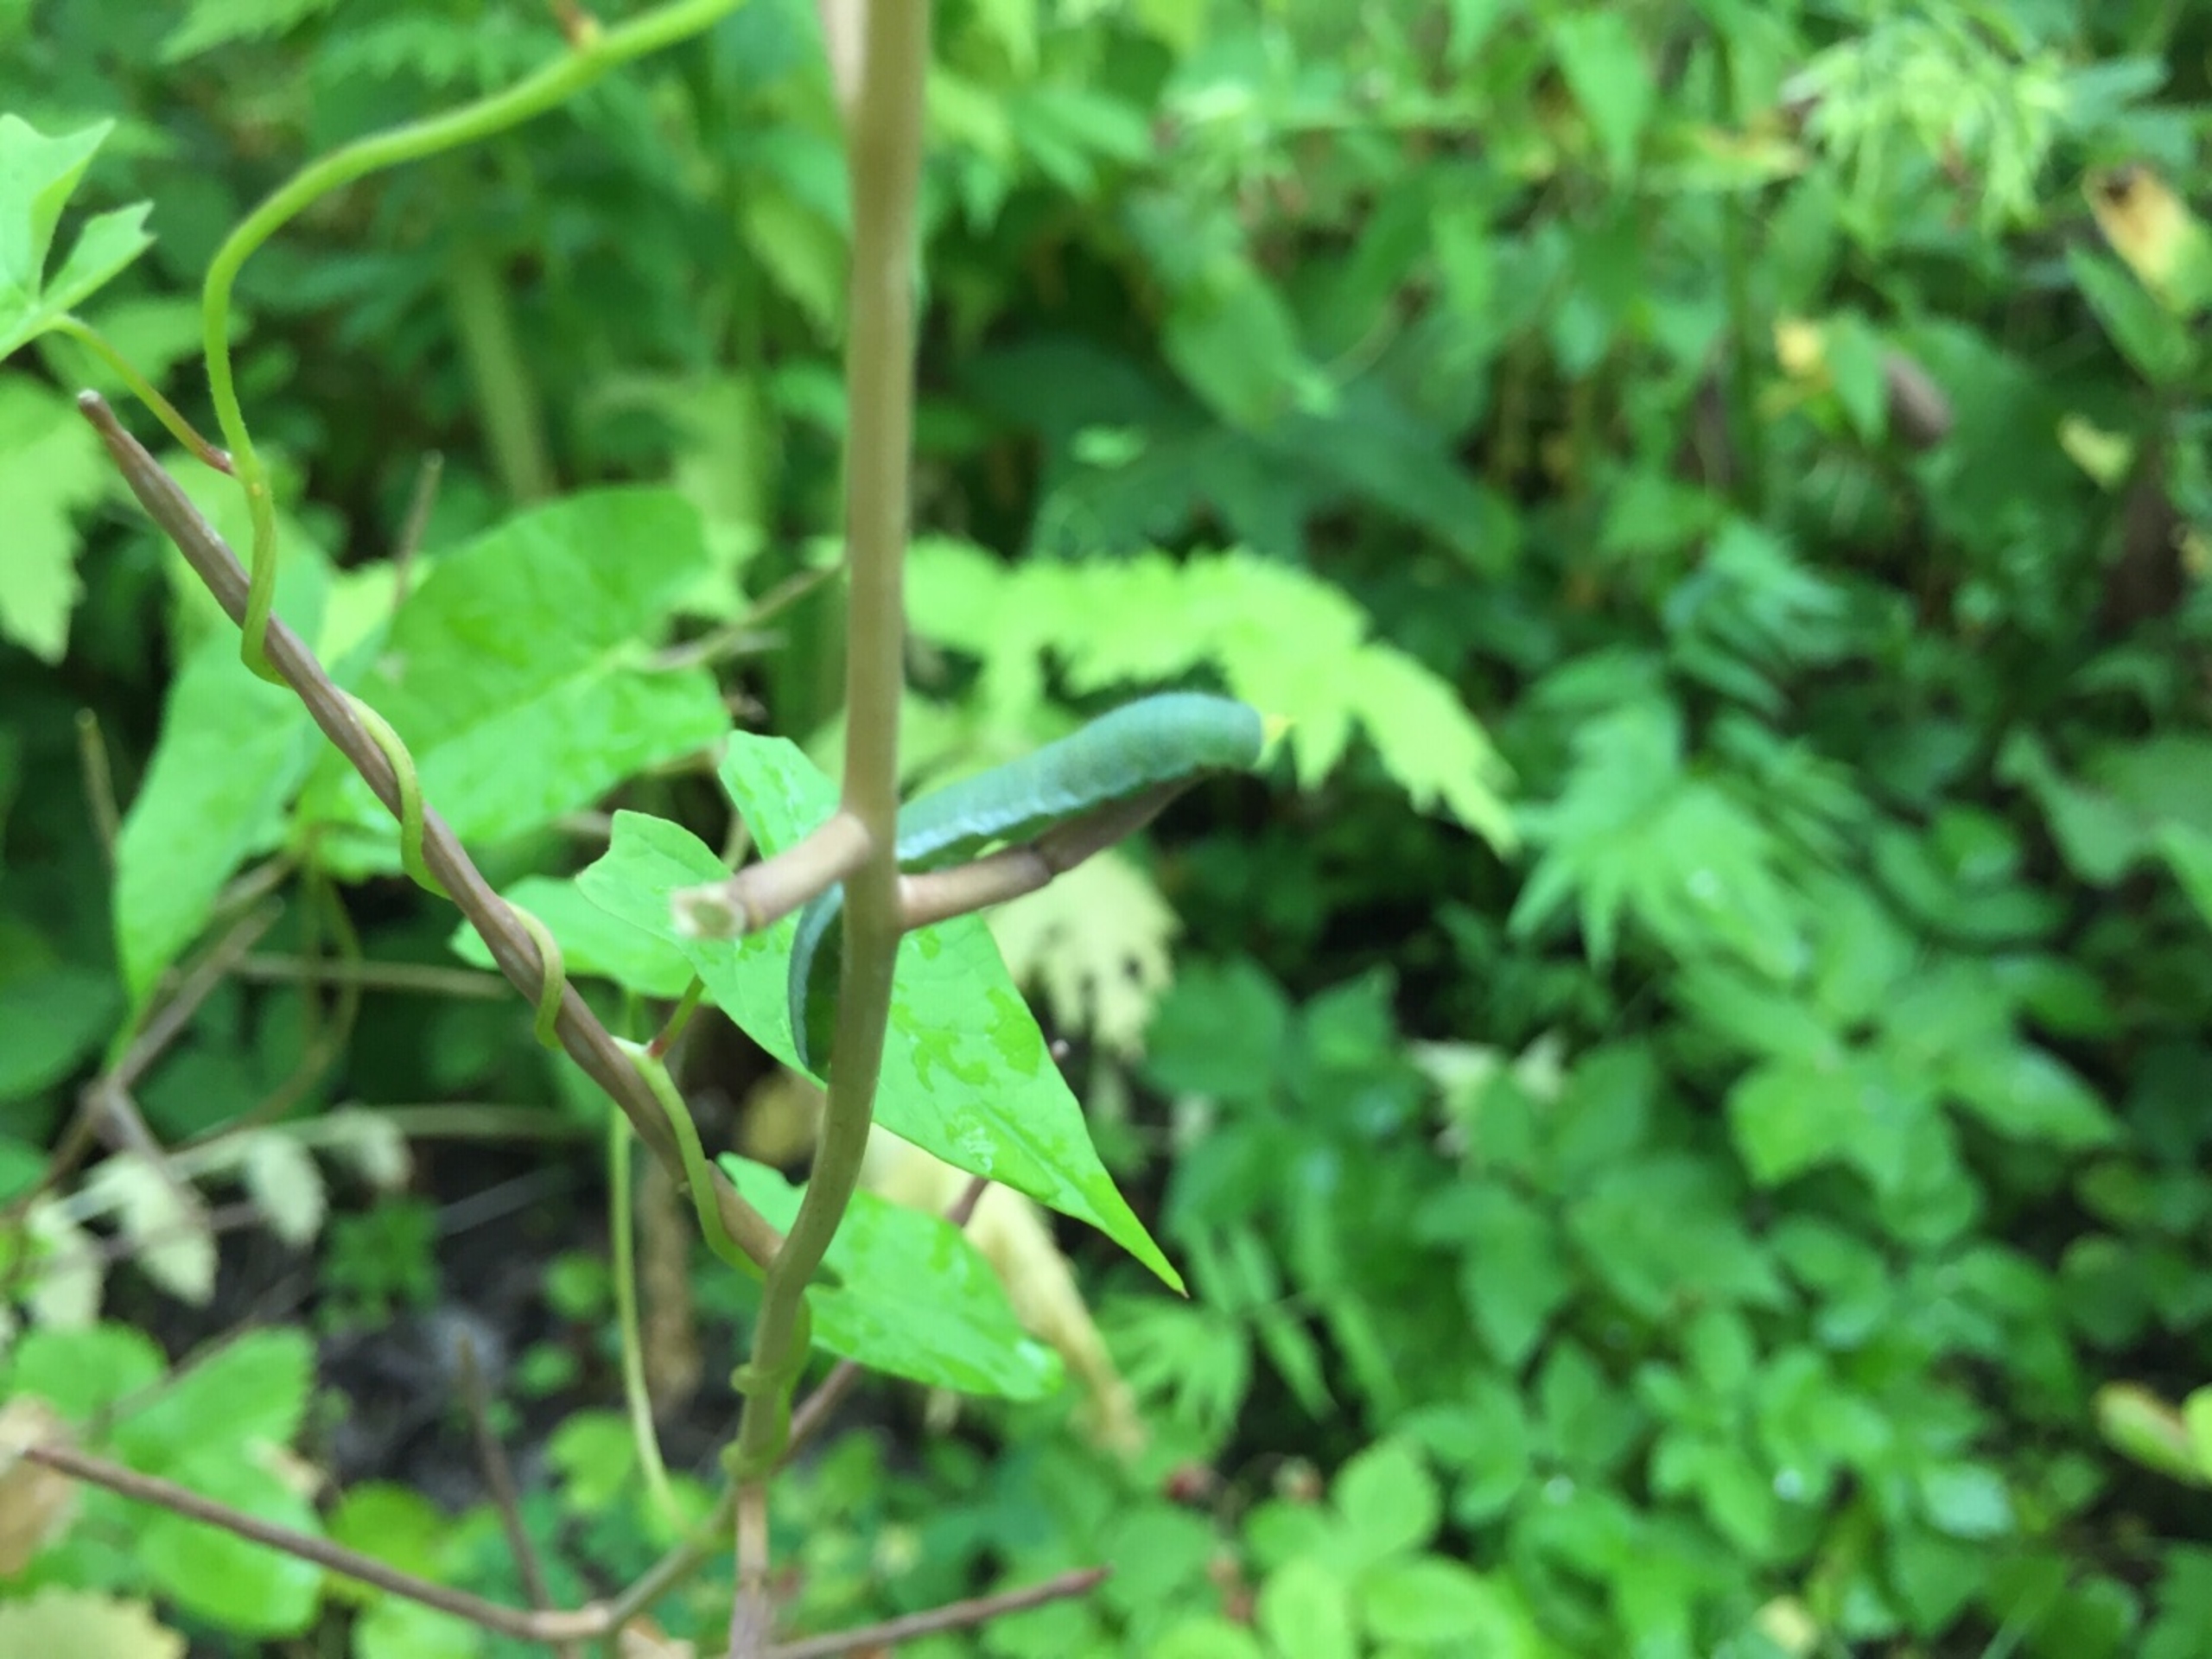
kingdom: Animalia
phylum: Arthropoda
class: Insecta
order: Lepidoptera
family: Pieridae
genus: Anthocharis
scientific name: Anthocharis cardamines
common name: Aurora
